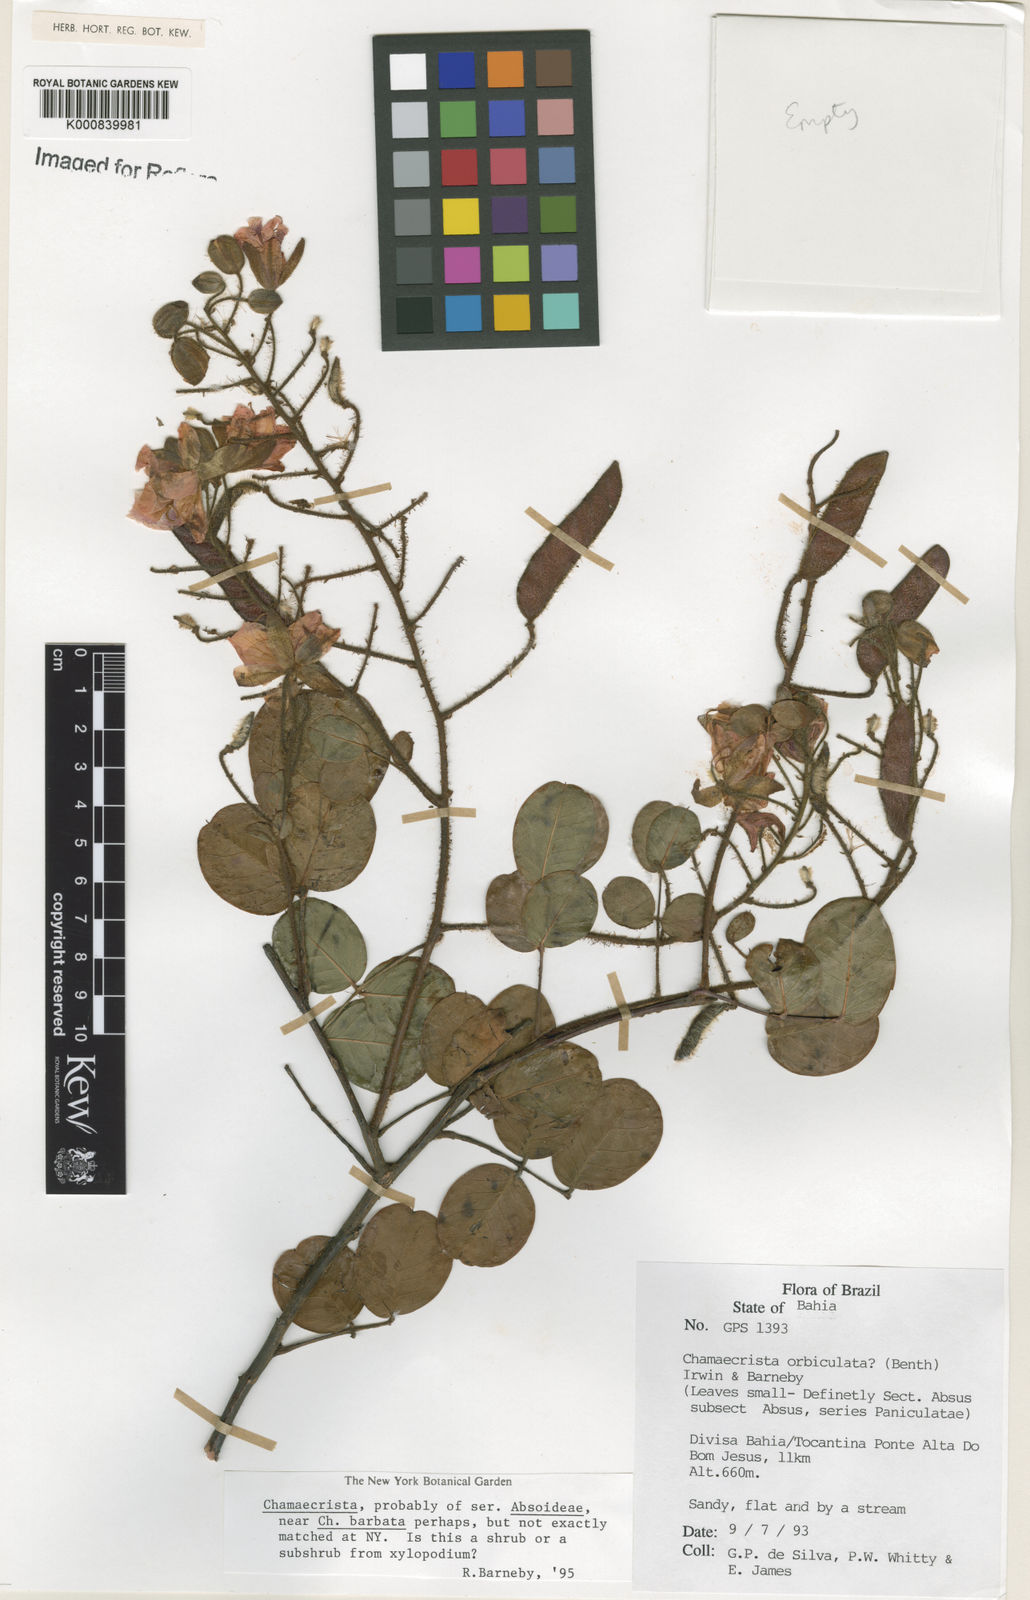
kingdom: Plantae
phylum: Tracheophyta
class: Magnoliopsida
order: Fabales
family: Fabaceae
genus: Chamaecrista
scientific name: Chamaecrista
